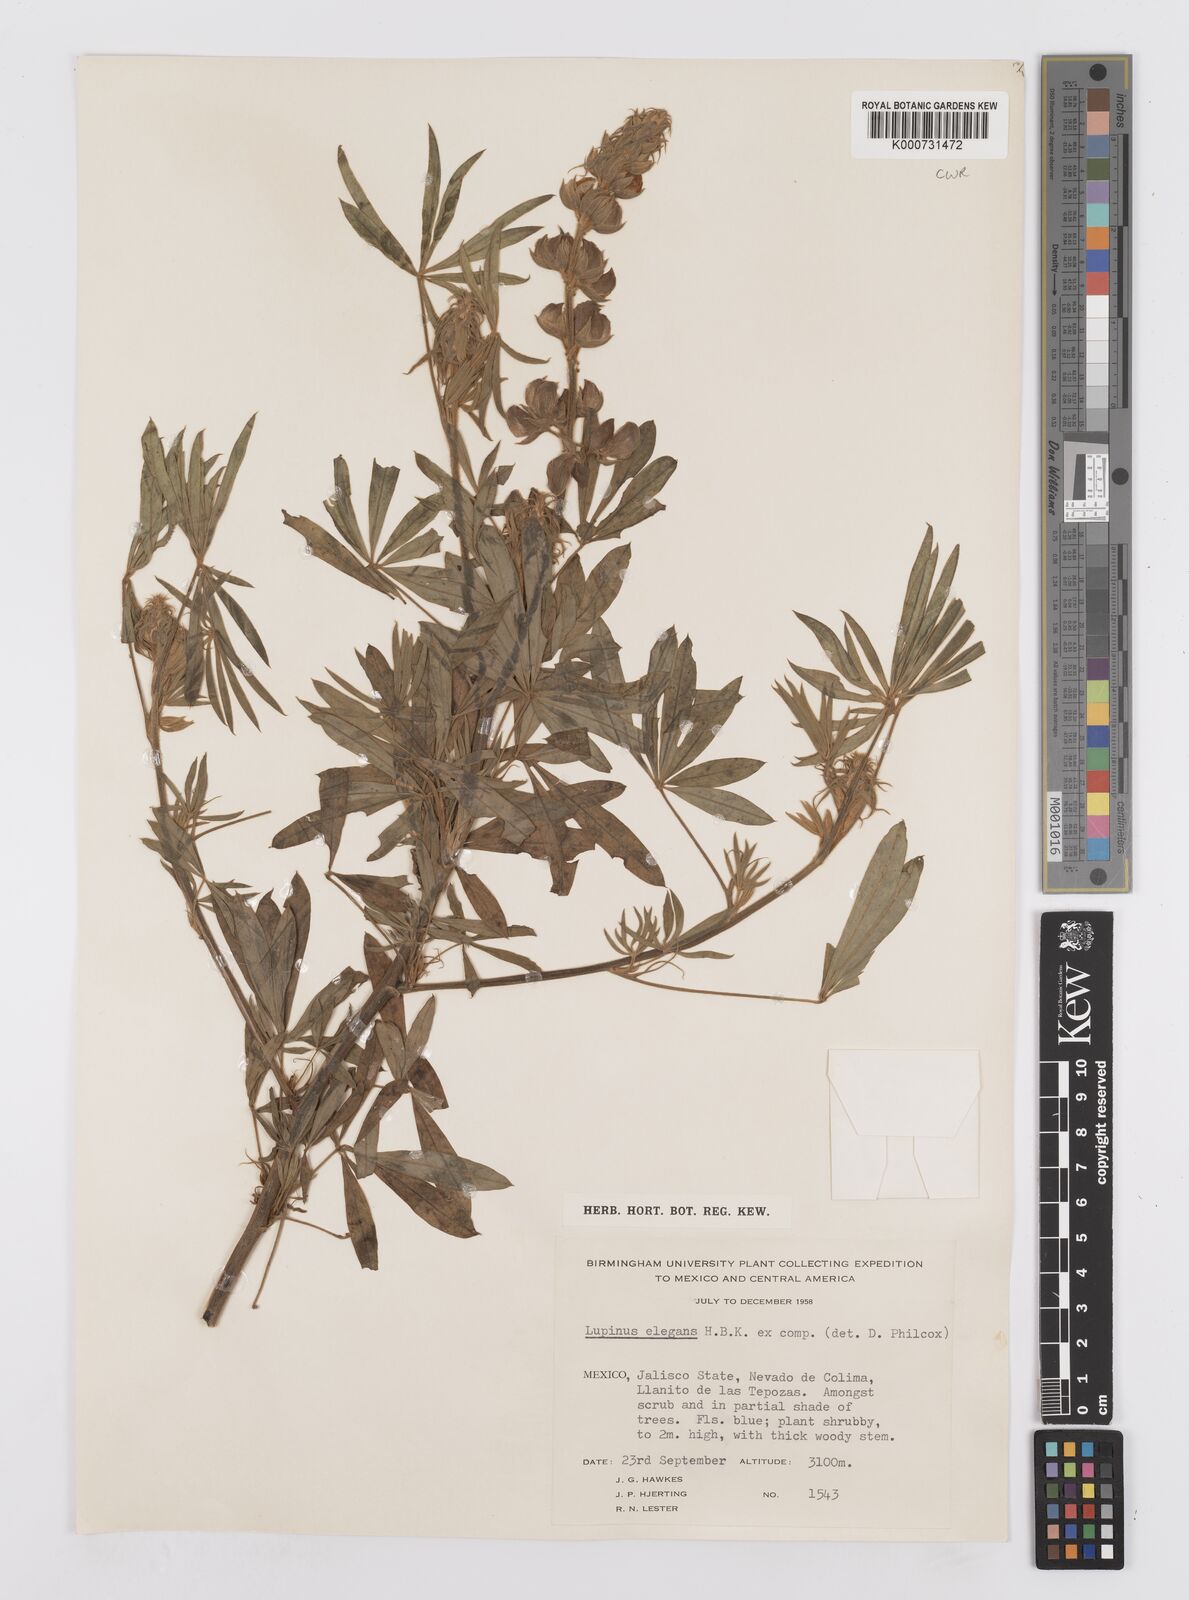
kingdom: Plantae
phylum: Tracheophyta
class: Magnoliopsida
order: Fabales
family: Fabaceae
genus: Lupinus
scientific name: Lupinus elegans
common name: Mexican lupine
